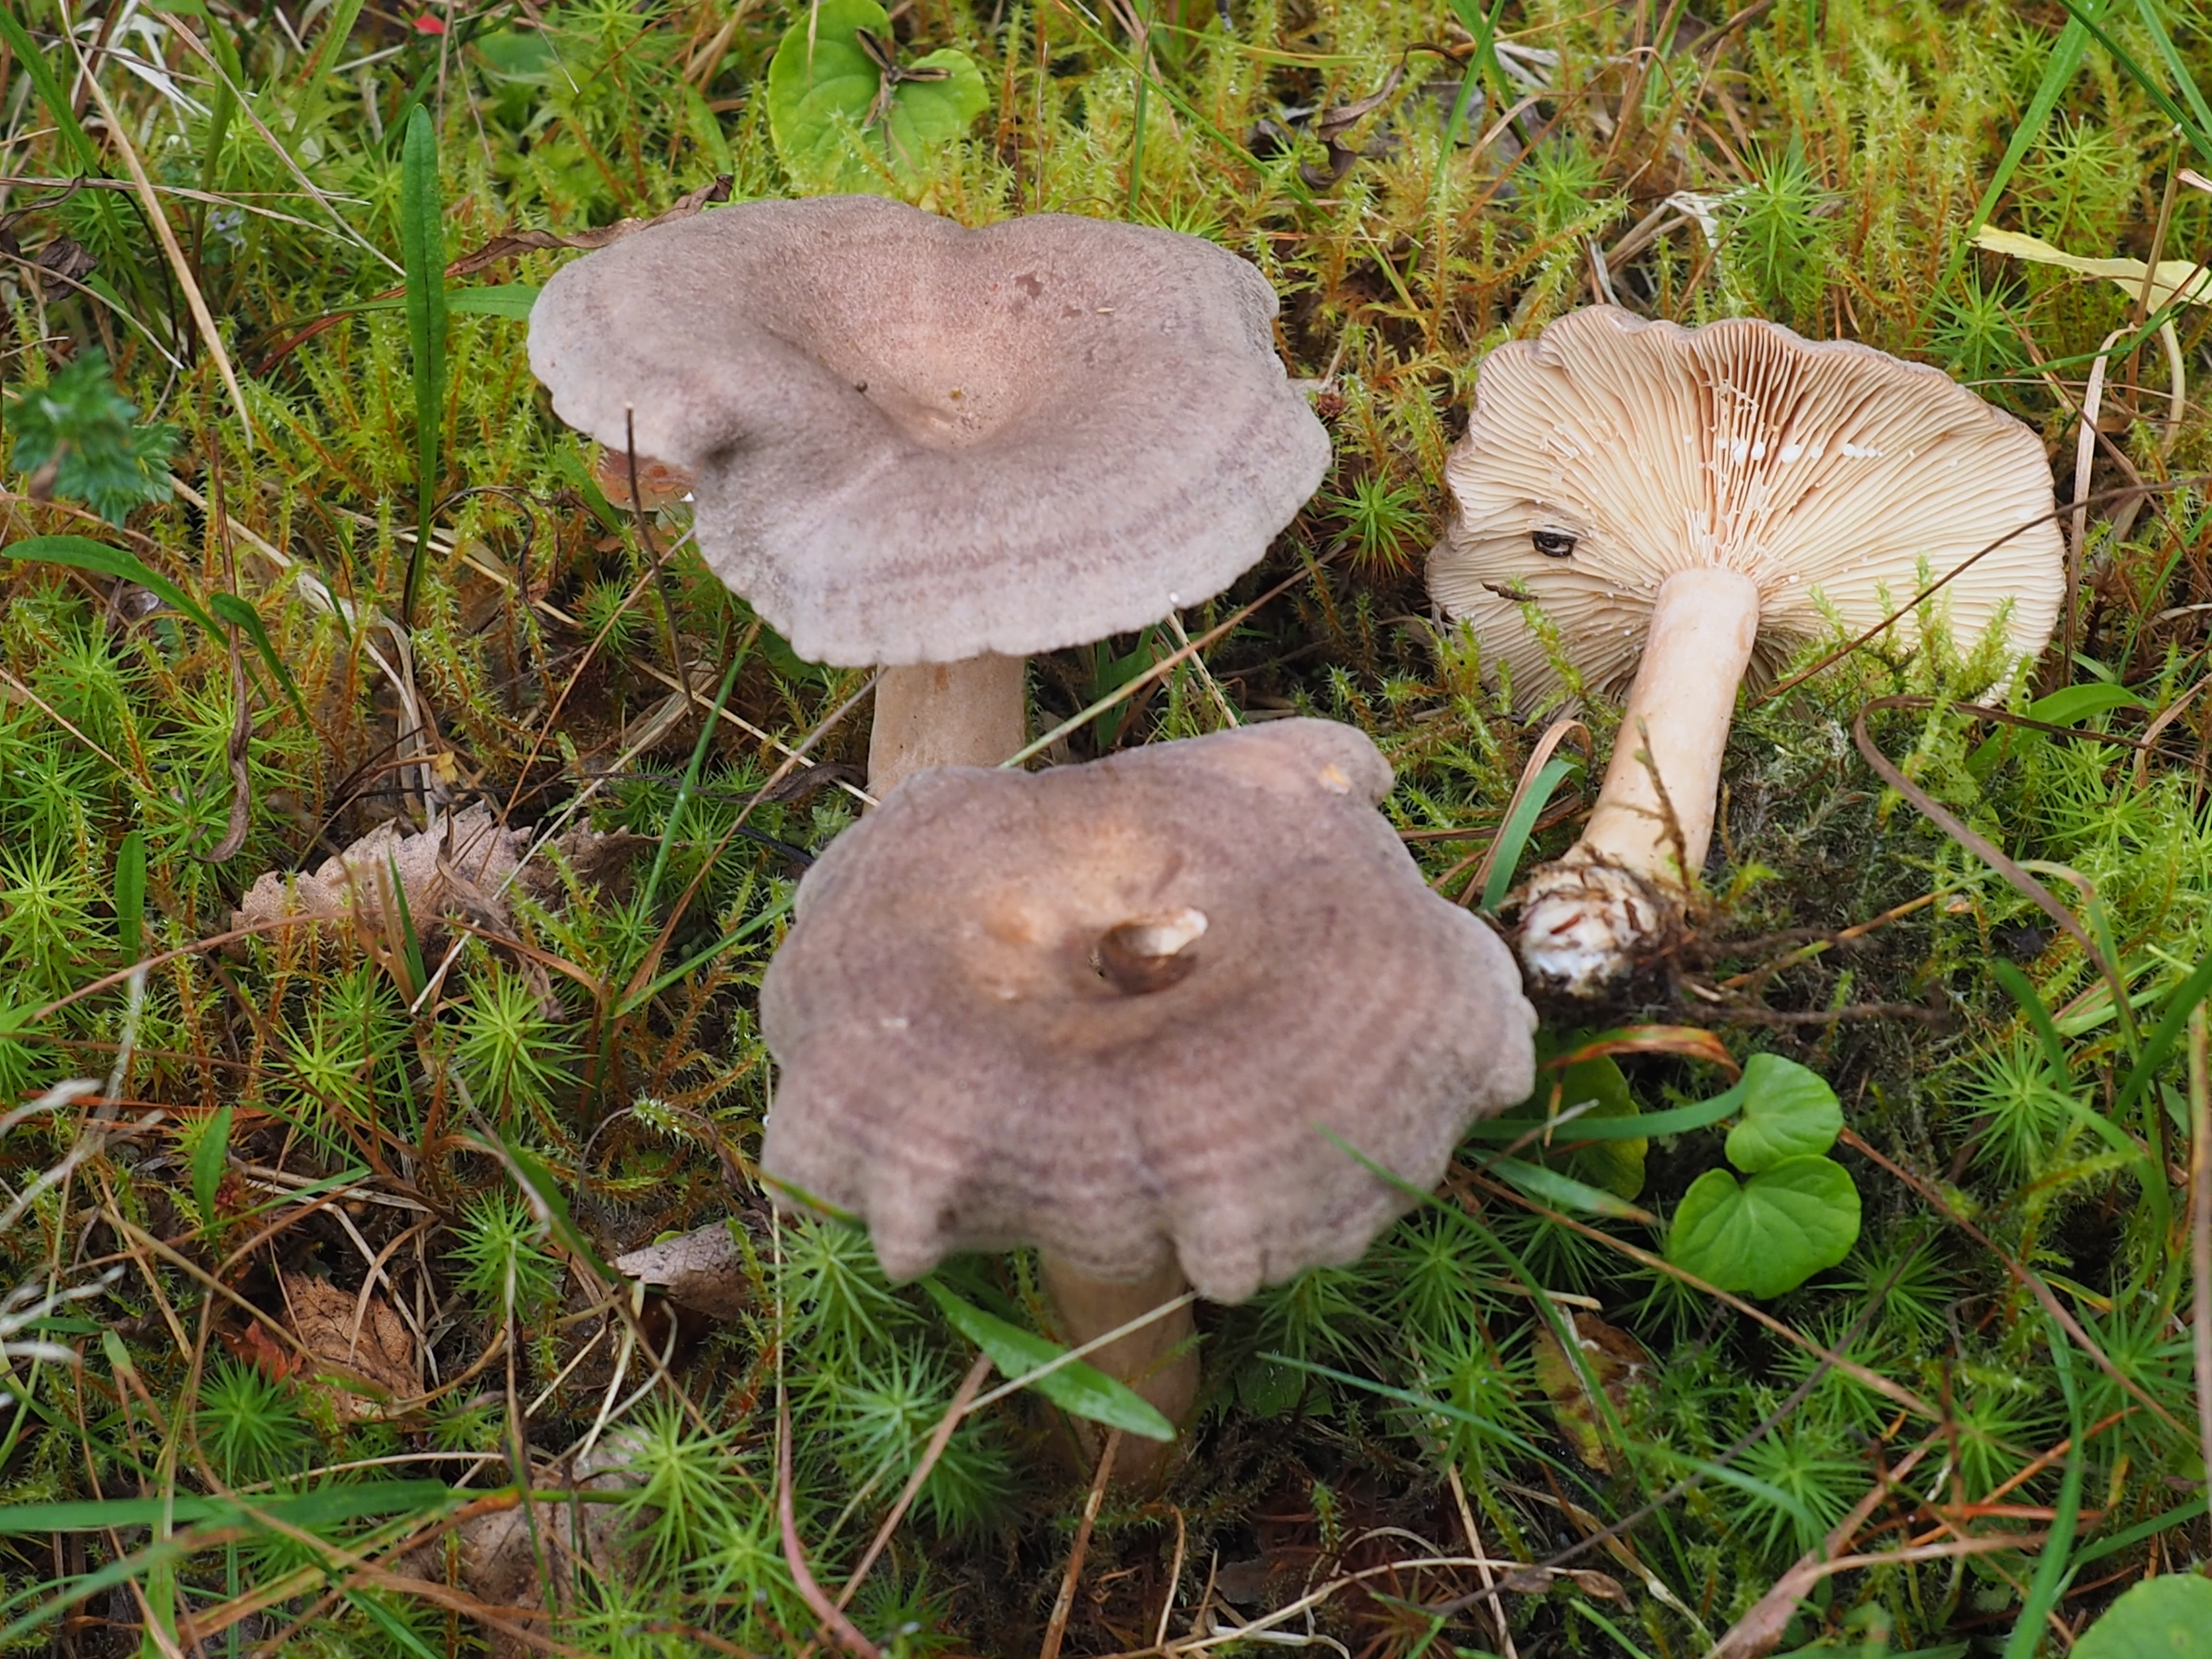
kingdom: Fungi
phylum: Basidiomycota
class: Agaricomycetes
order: Russulales
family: Russulaceae
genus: Lactarius
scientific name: Lactarius mammosus
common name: Pap milkcap
